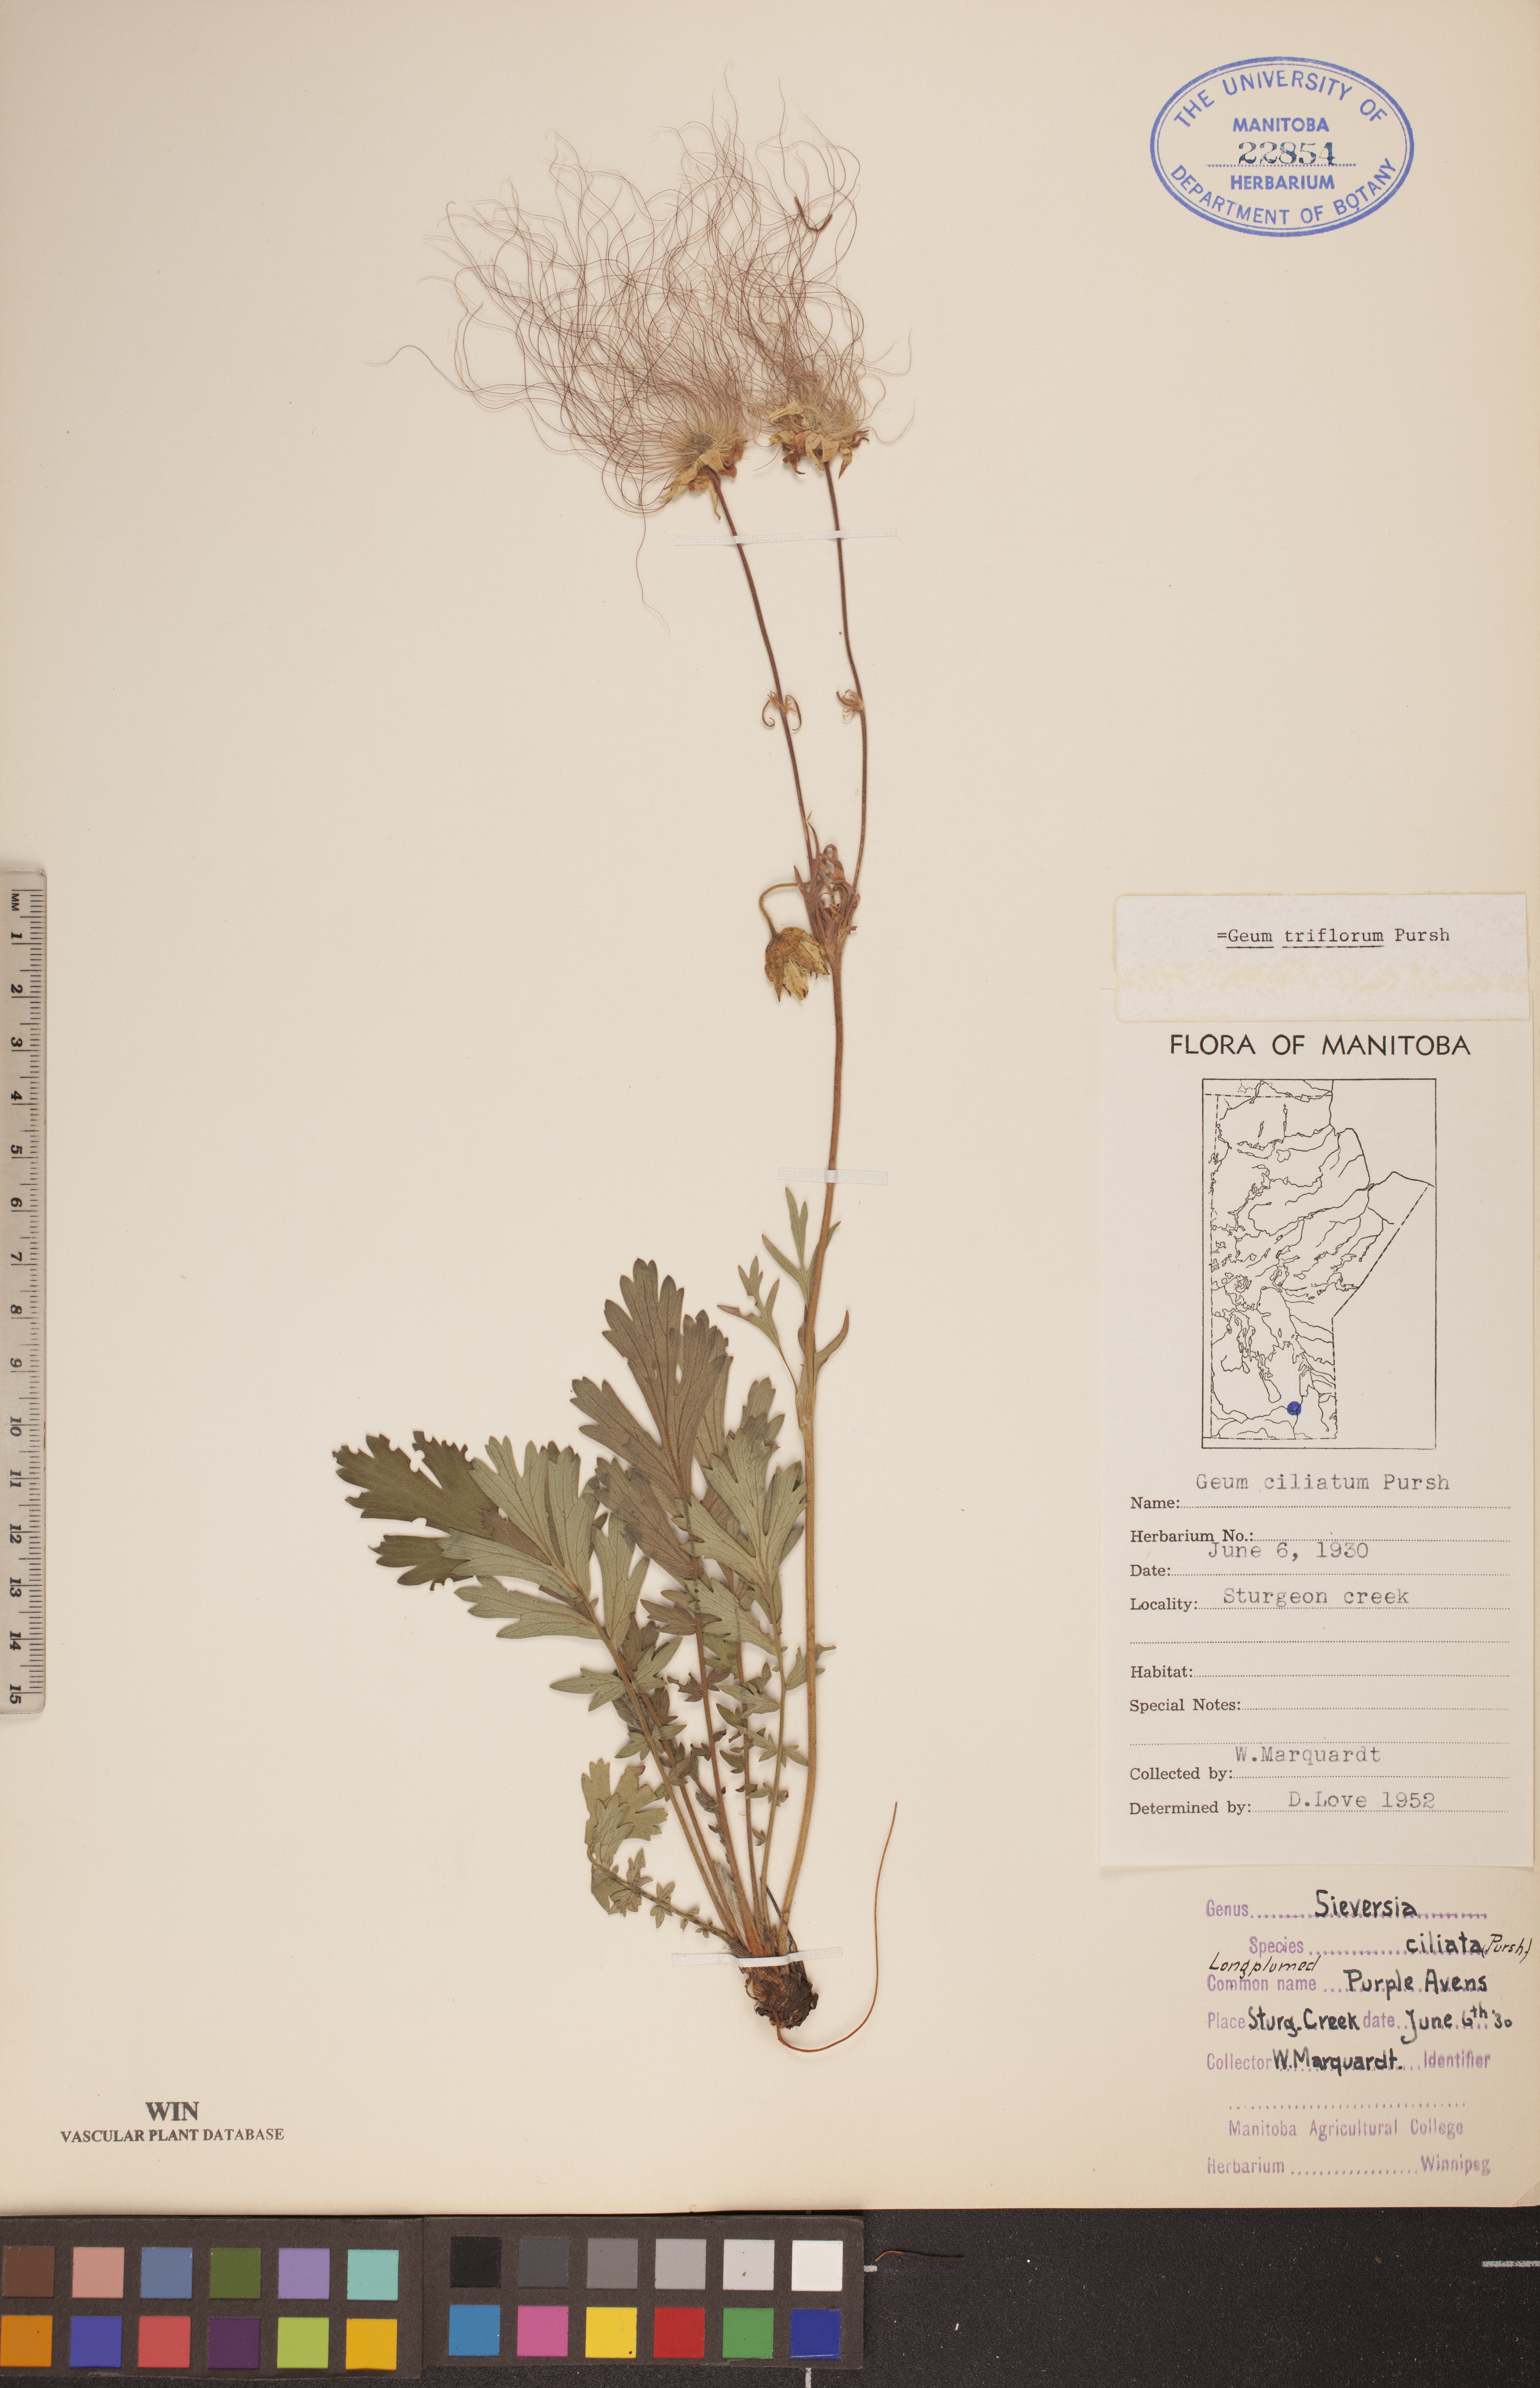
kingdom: Plantae
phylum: Tracheophyta
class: Magnoliopsida
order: Rosales
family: Rosaceae
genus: Geum
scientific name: Geum triflorum
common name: Old man's whiskers
